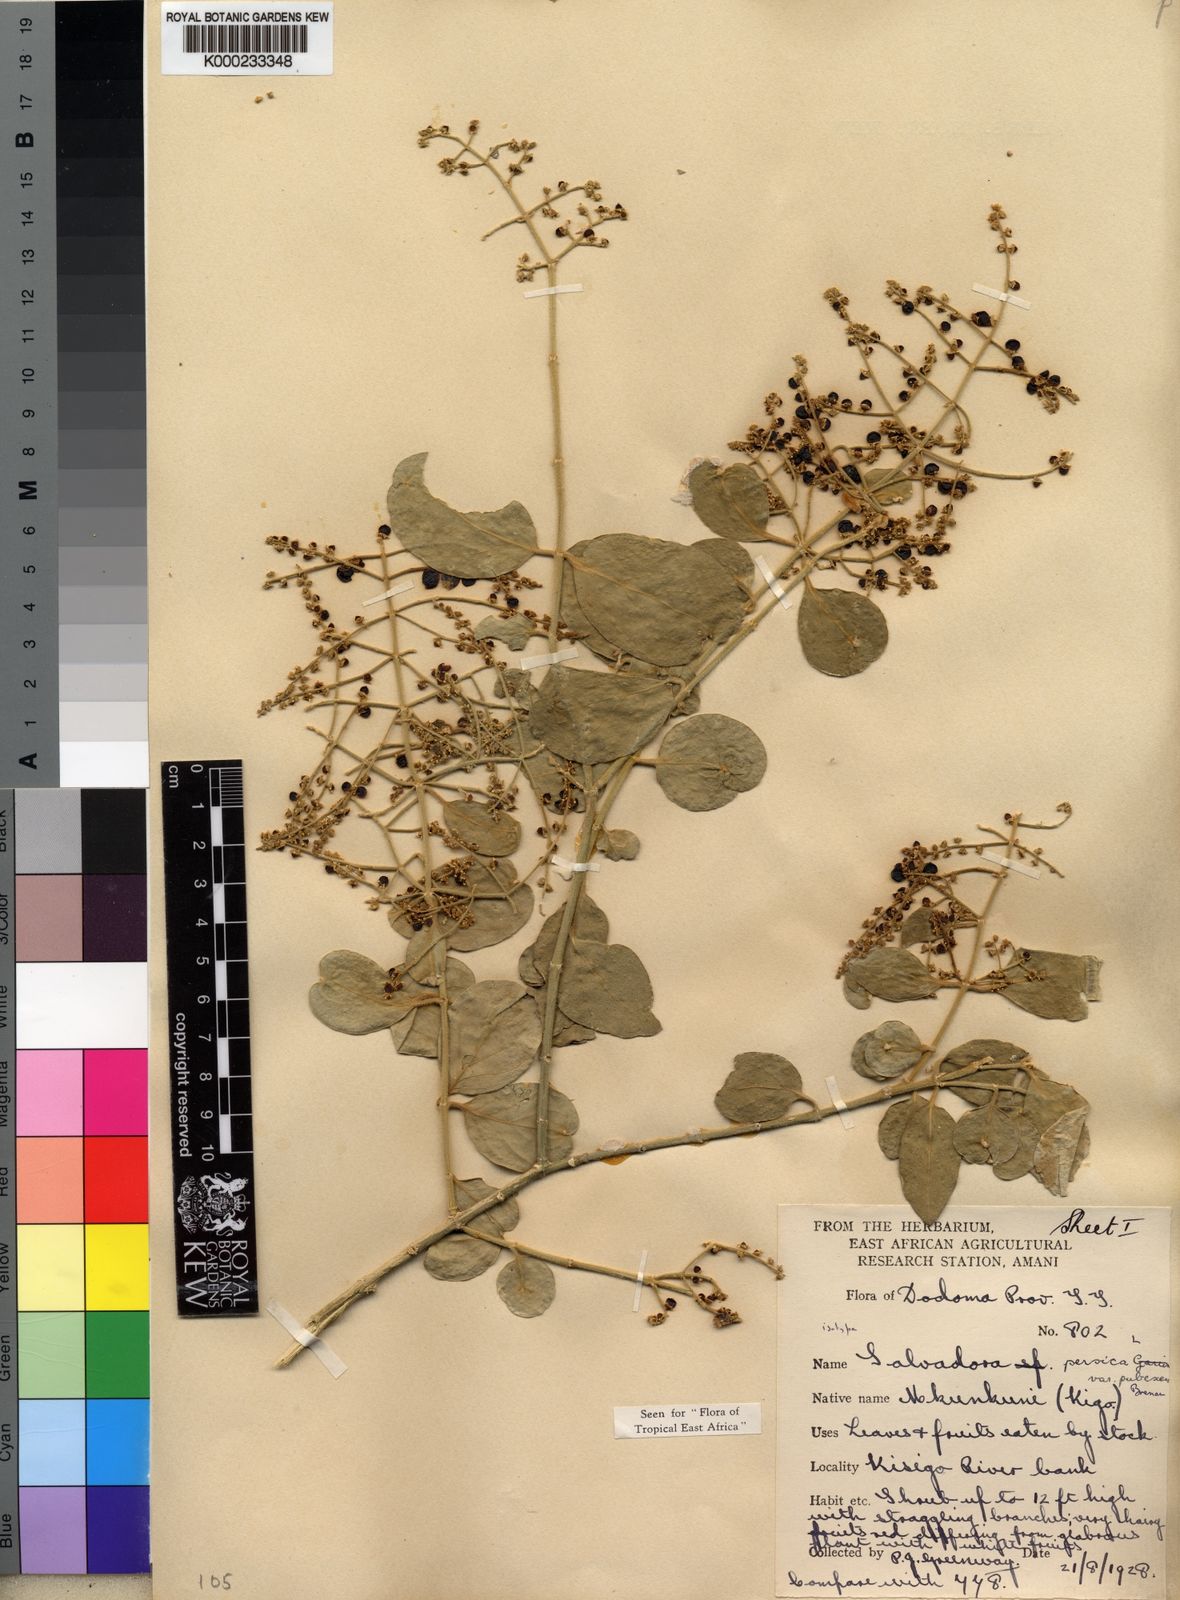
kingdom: Plantae
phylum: Tracheophyta
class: Magnoliopsida
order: Brassicales
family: Salvadoraceae
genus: Salvadora
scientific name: Salvadora persica
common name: Toothbrushtree
